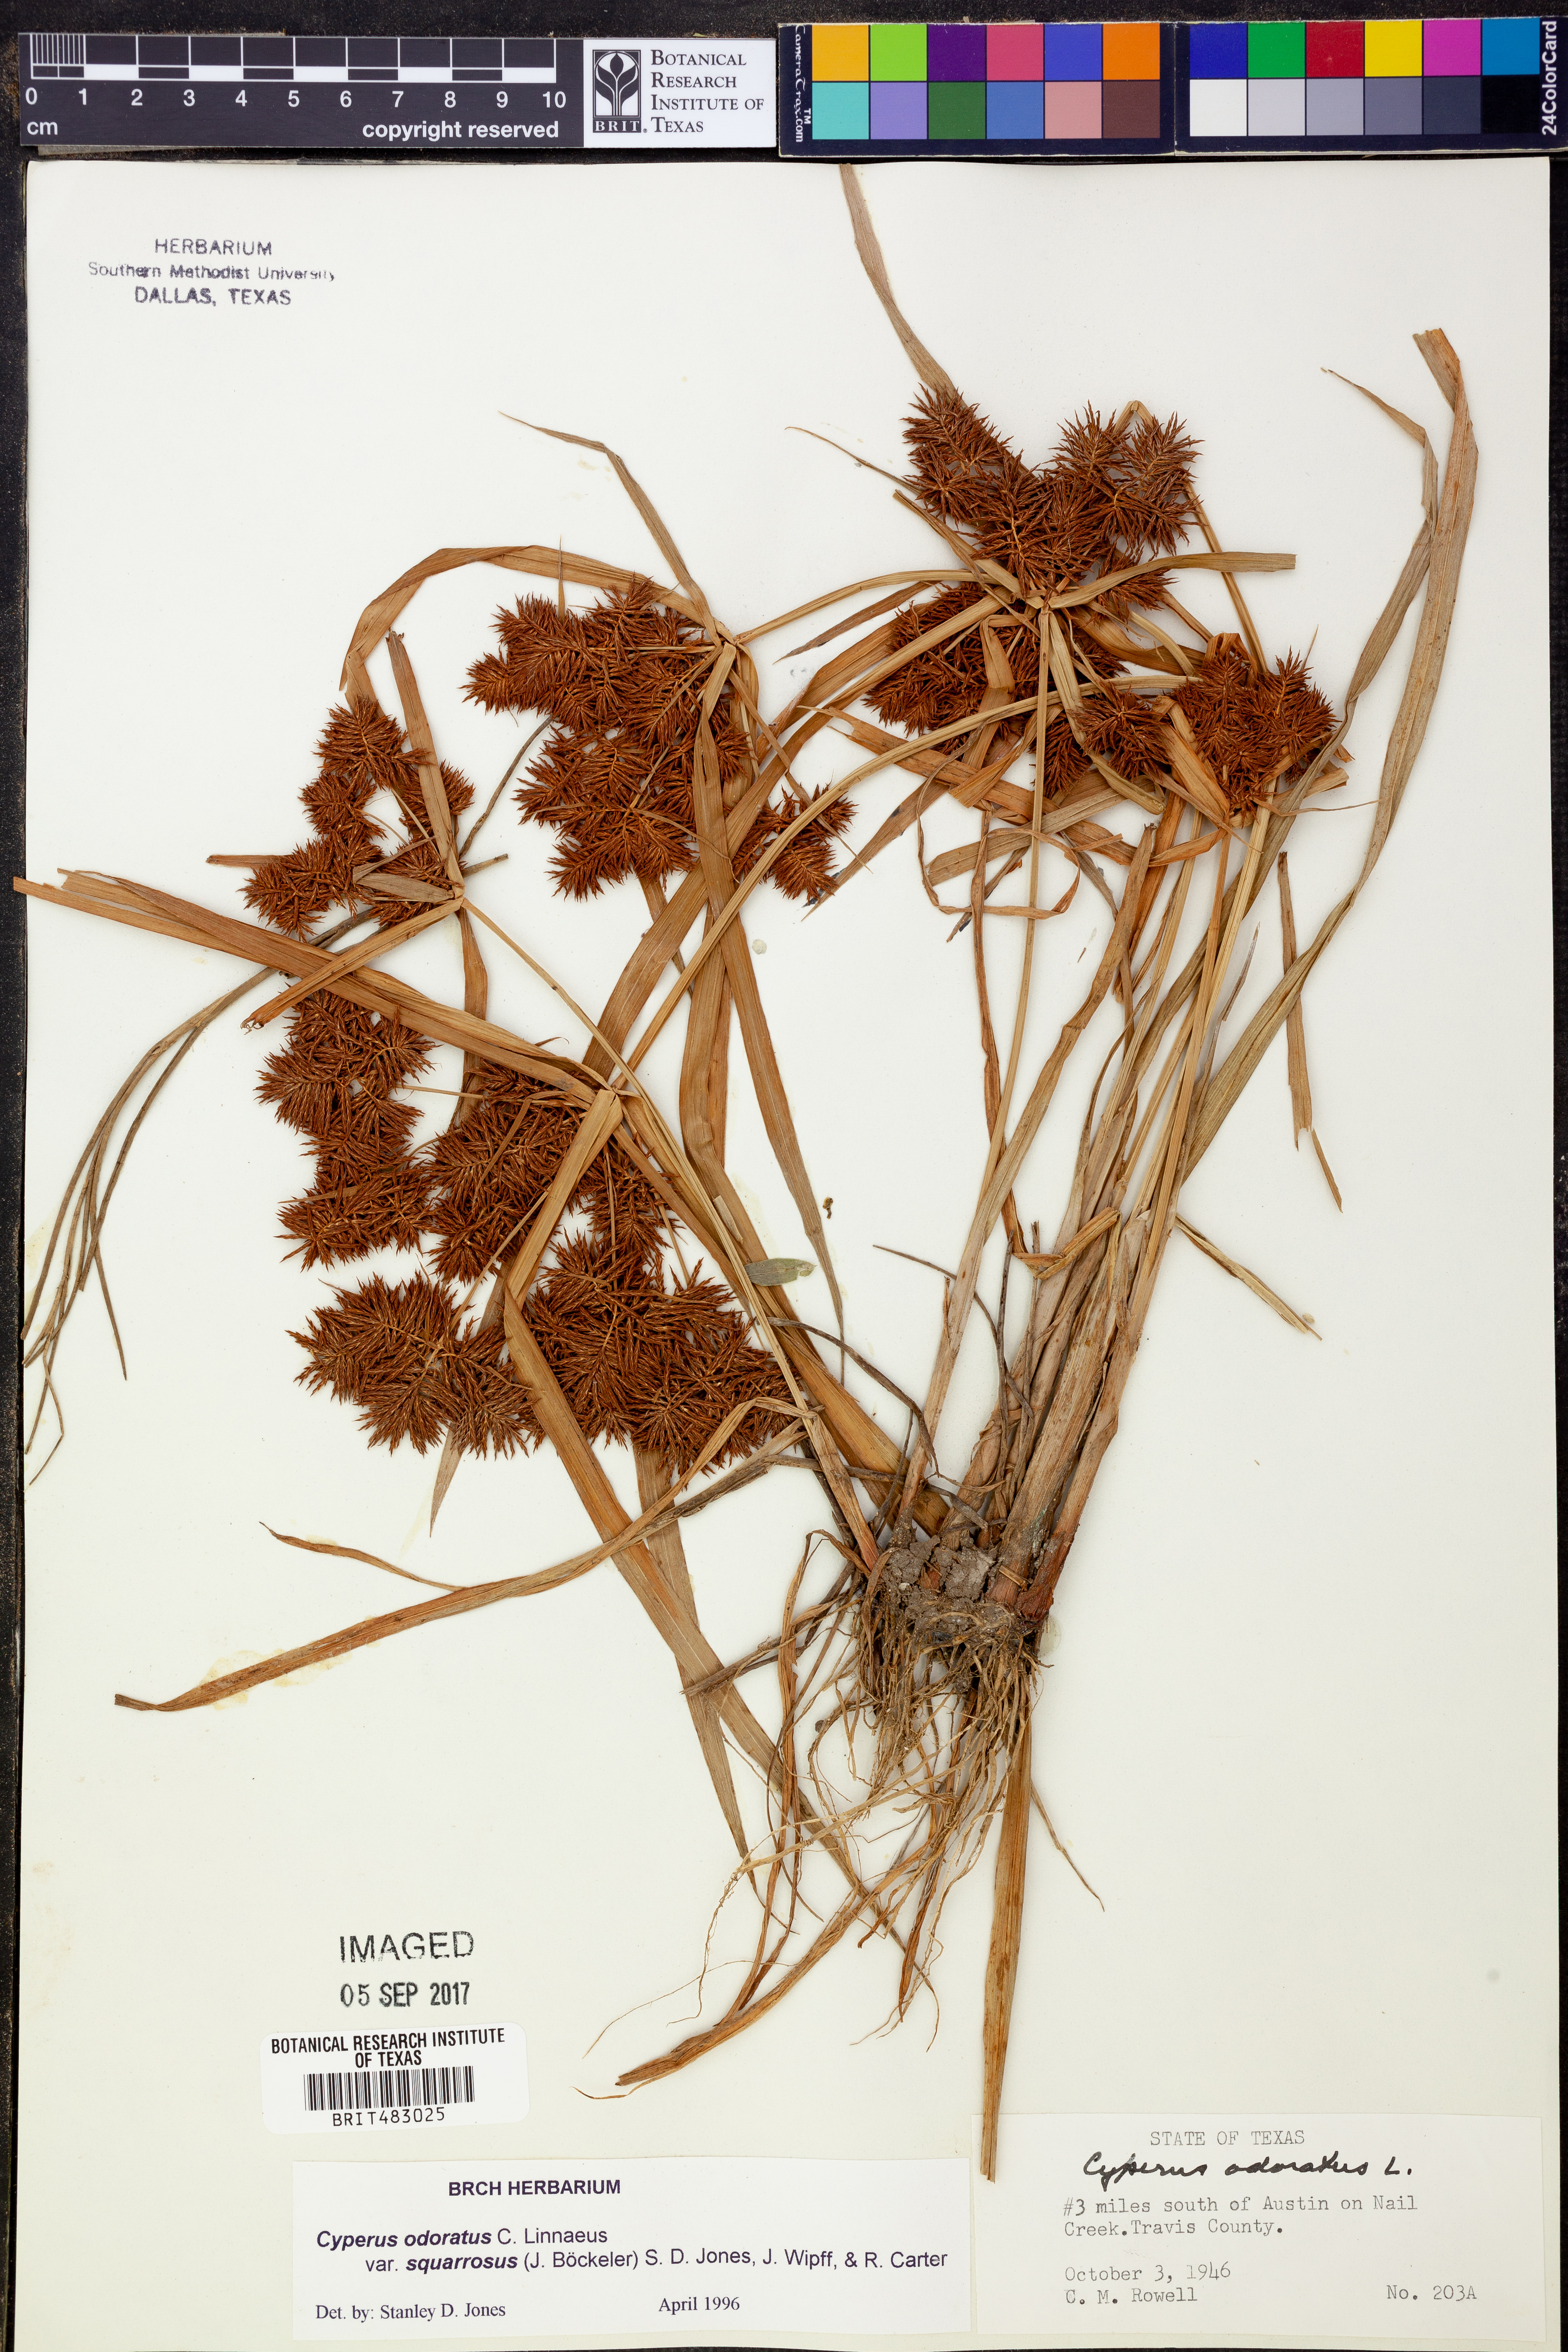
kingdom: Plantae
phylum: Tracheophyta
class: Liliopsida
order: Poales
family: Cyperaceae
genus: Cyperus
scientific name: Cyperus odoratus
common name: Fragrant flatsedge
